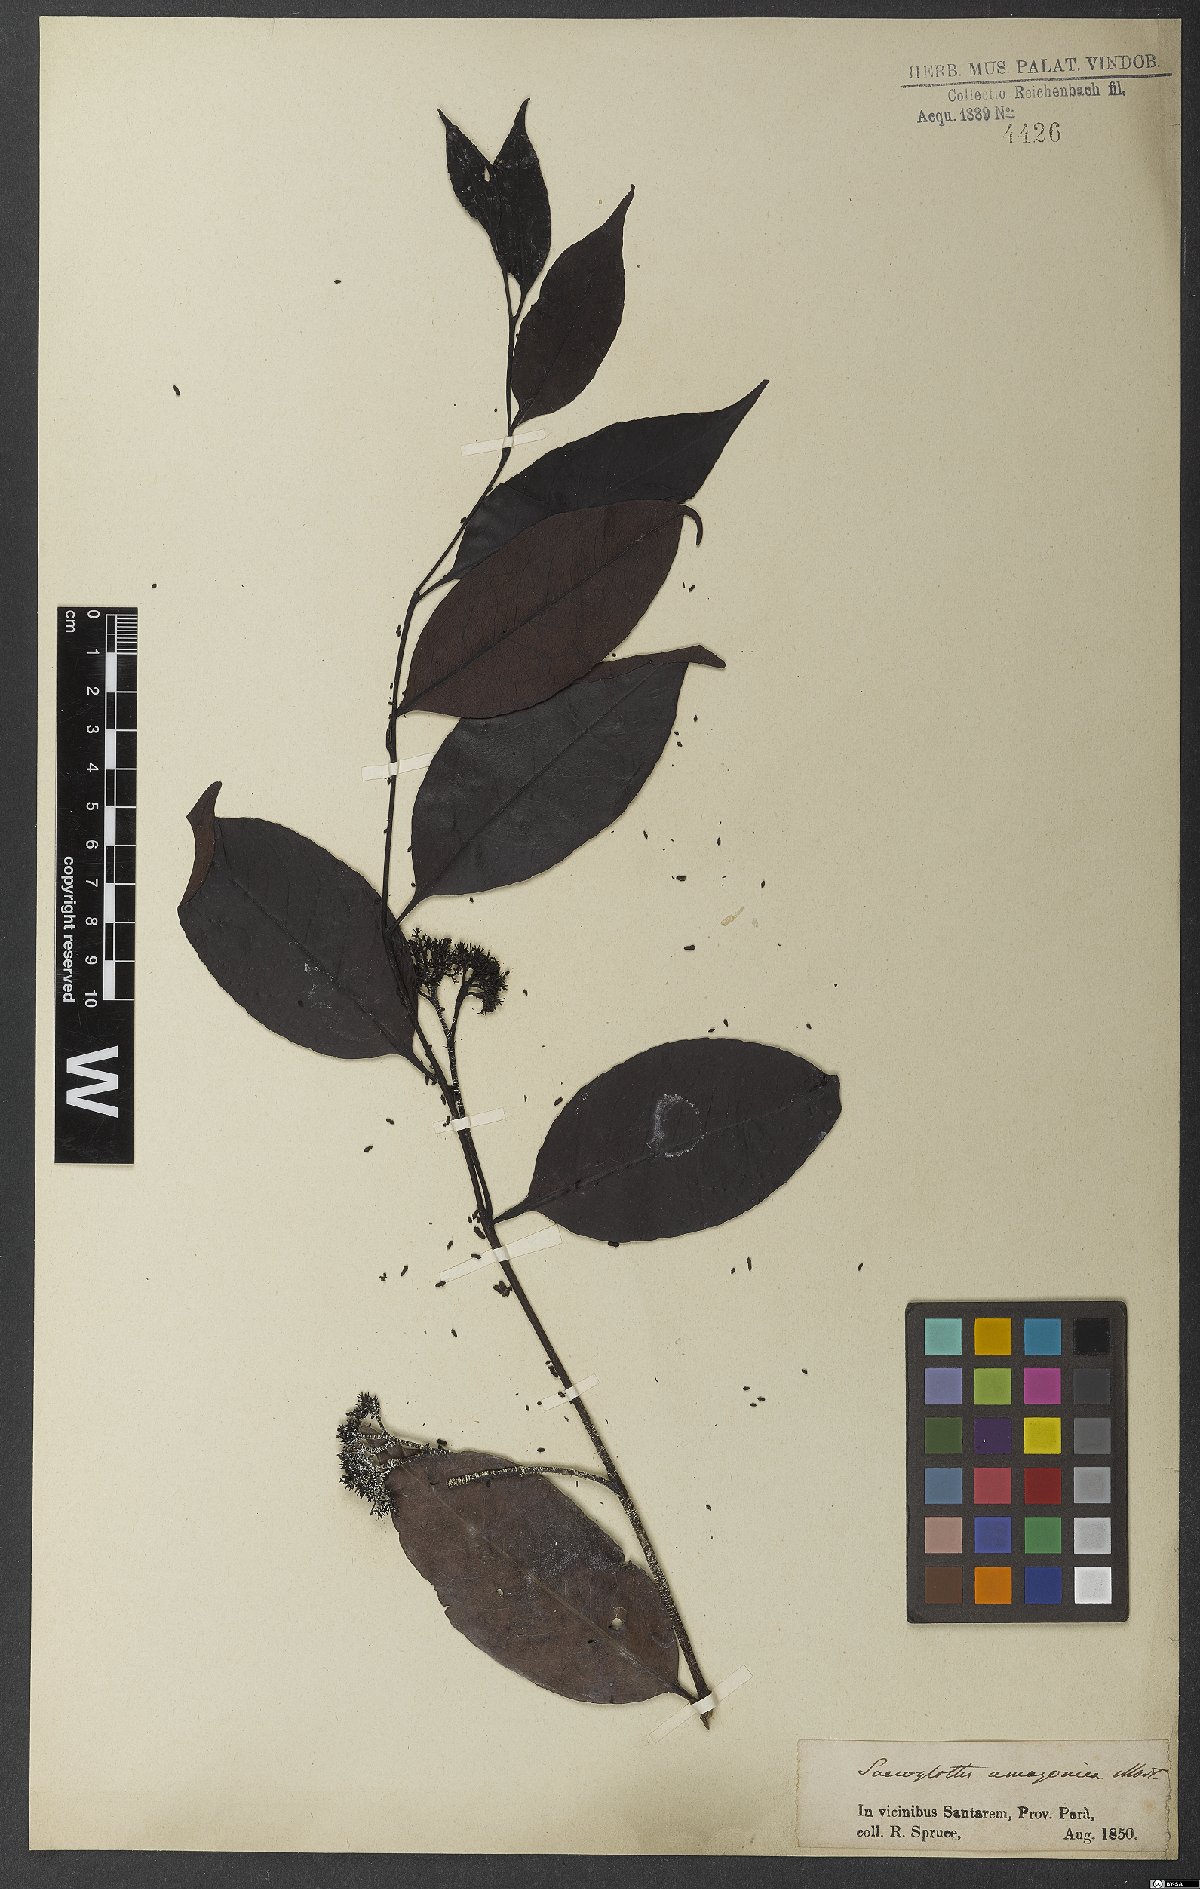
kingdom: Plantae
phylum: Tracheophyta
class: Magnoliopsida
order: Malpighiales
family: Humiriaceae
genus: Sacoglottis
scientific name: Sacoglottis amazonica
